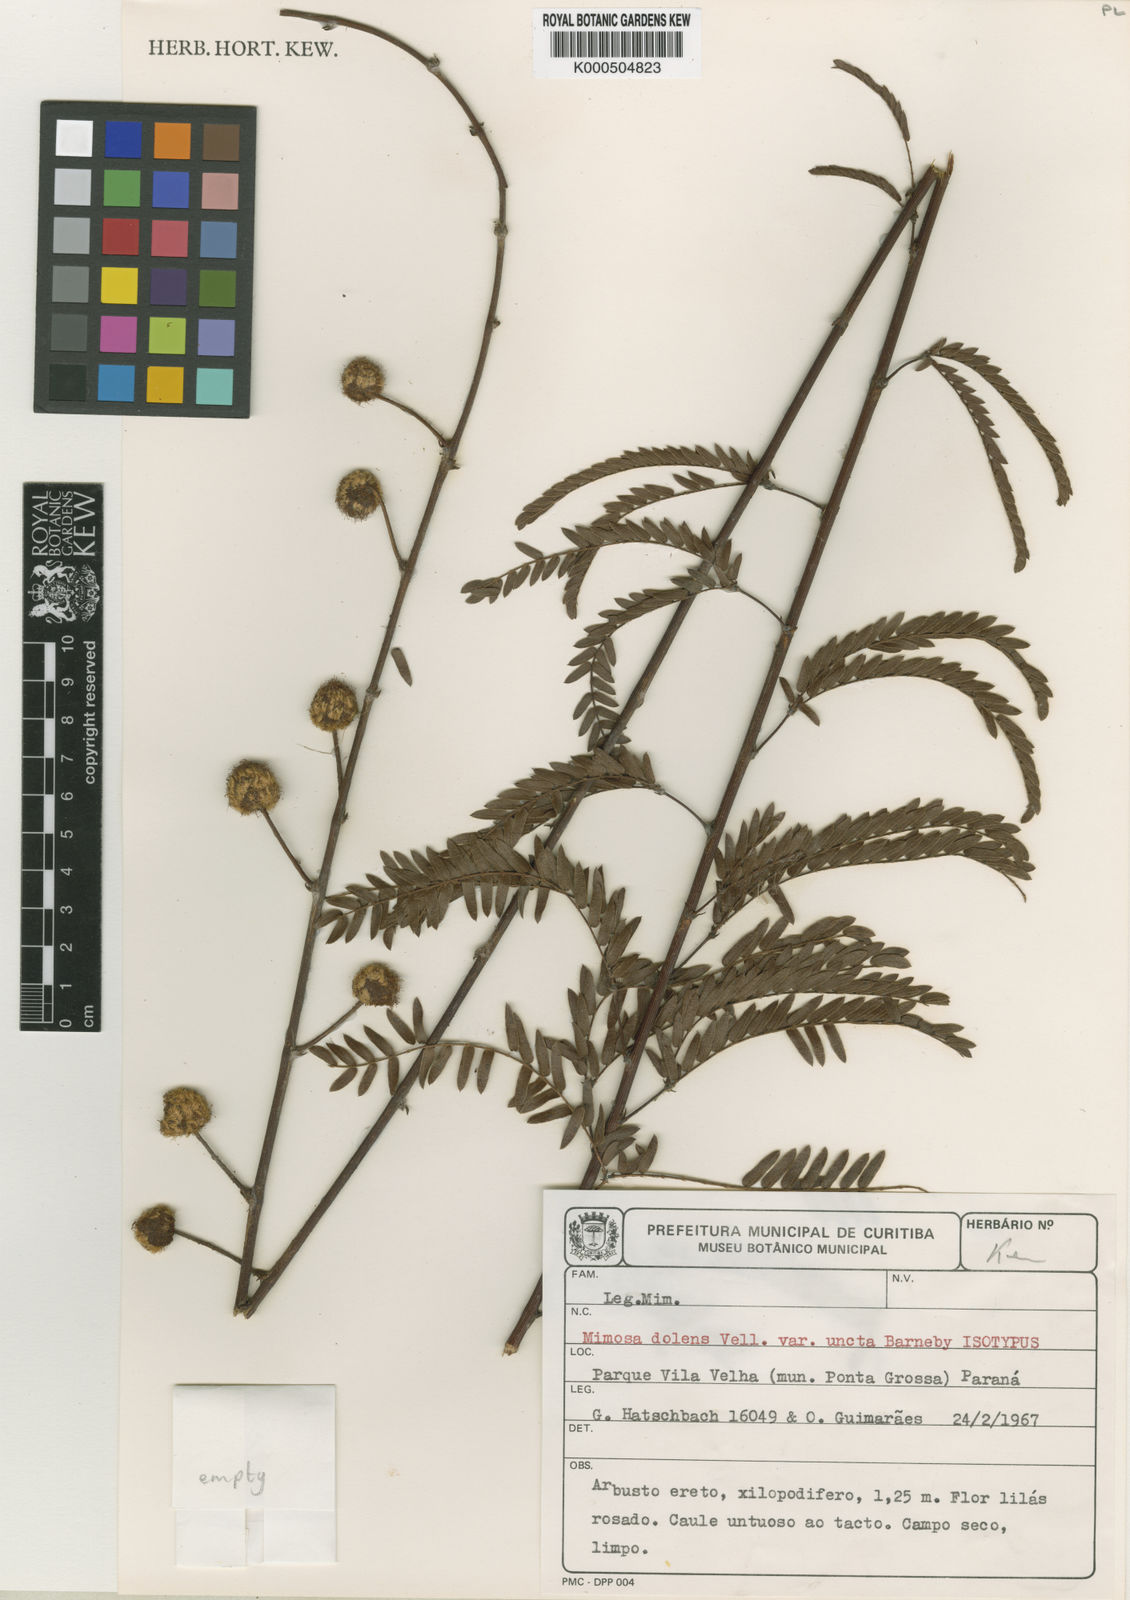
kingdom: Plantae
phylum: Tracheophyta
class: Magnoliopsida
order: Fabales
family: Fabaceae
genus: Mimosa
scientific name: Mimosa dolens
